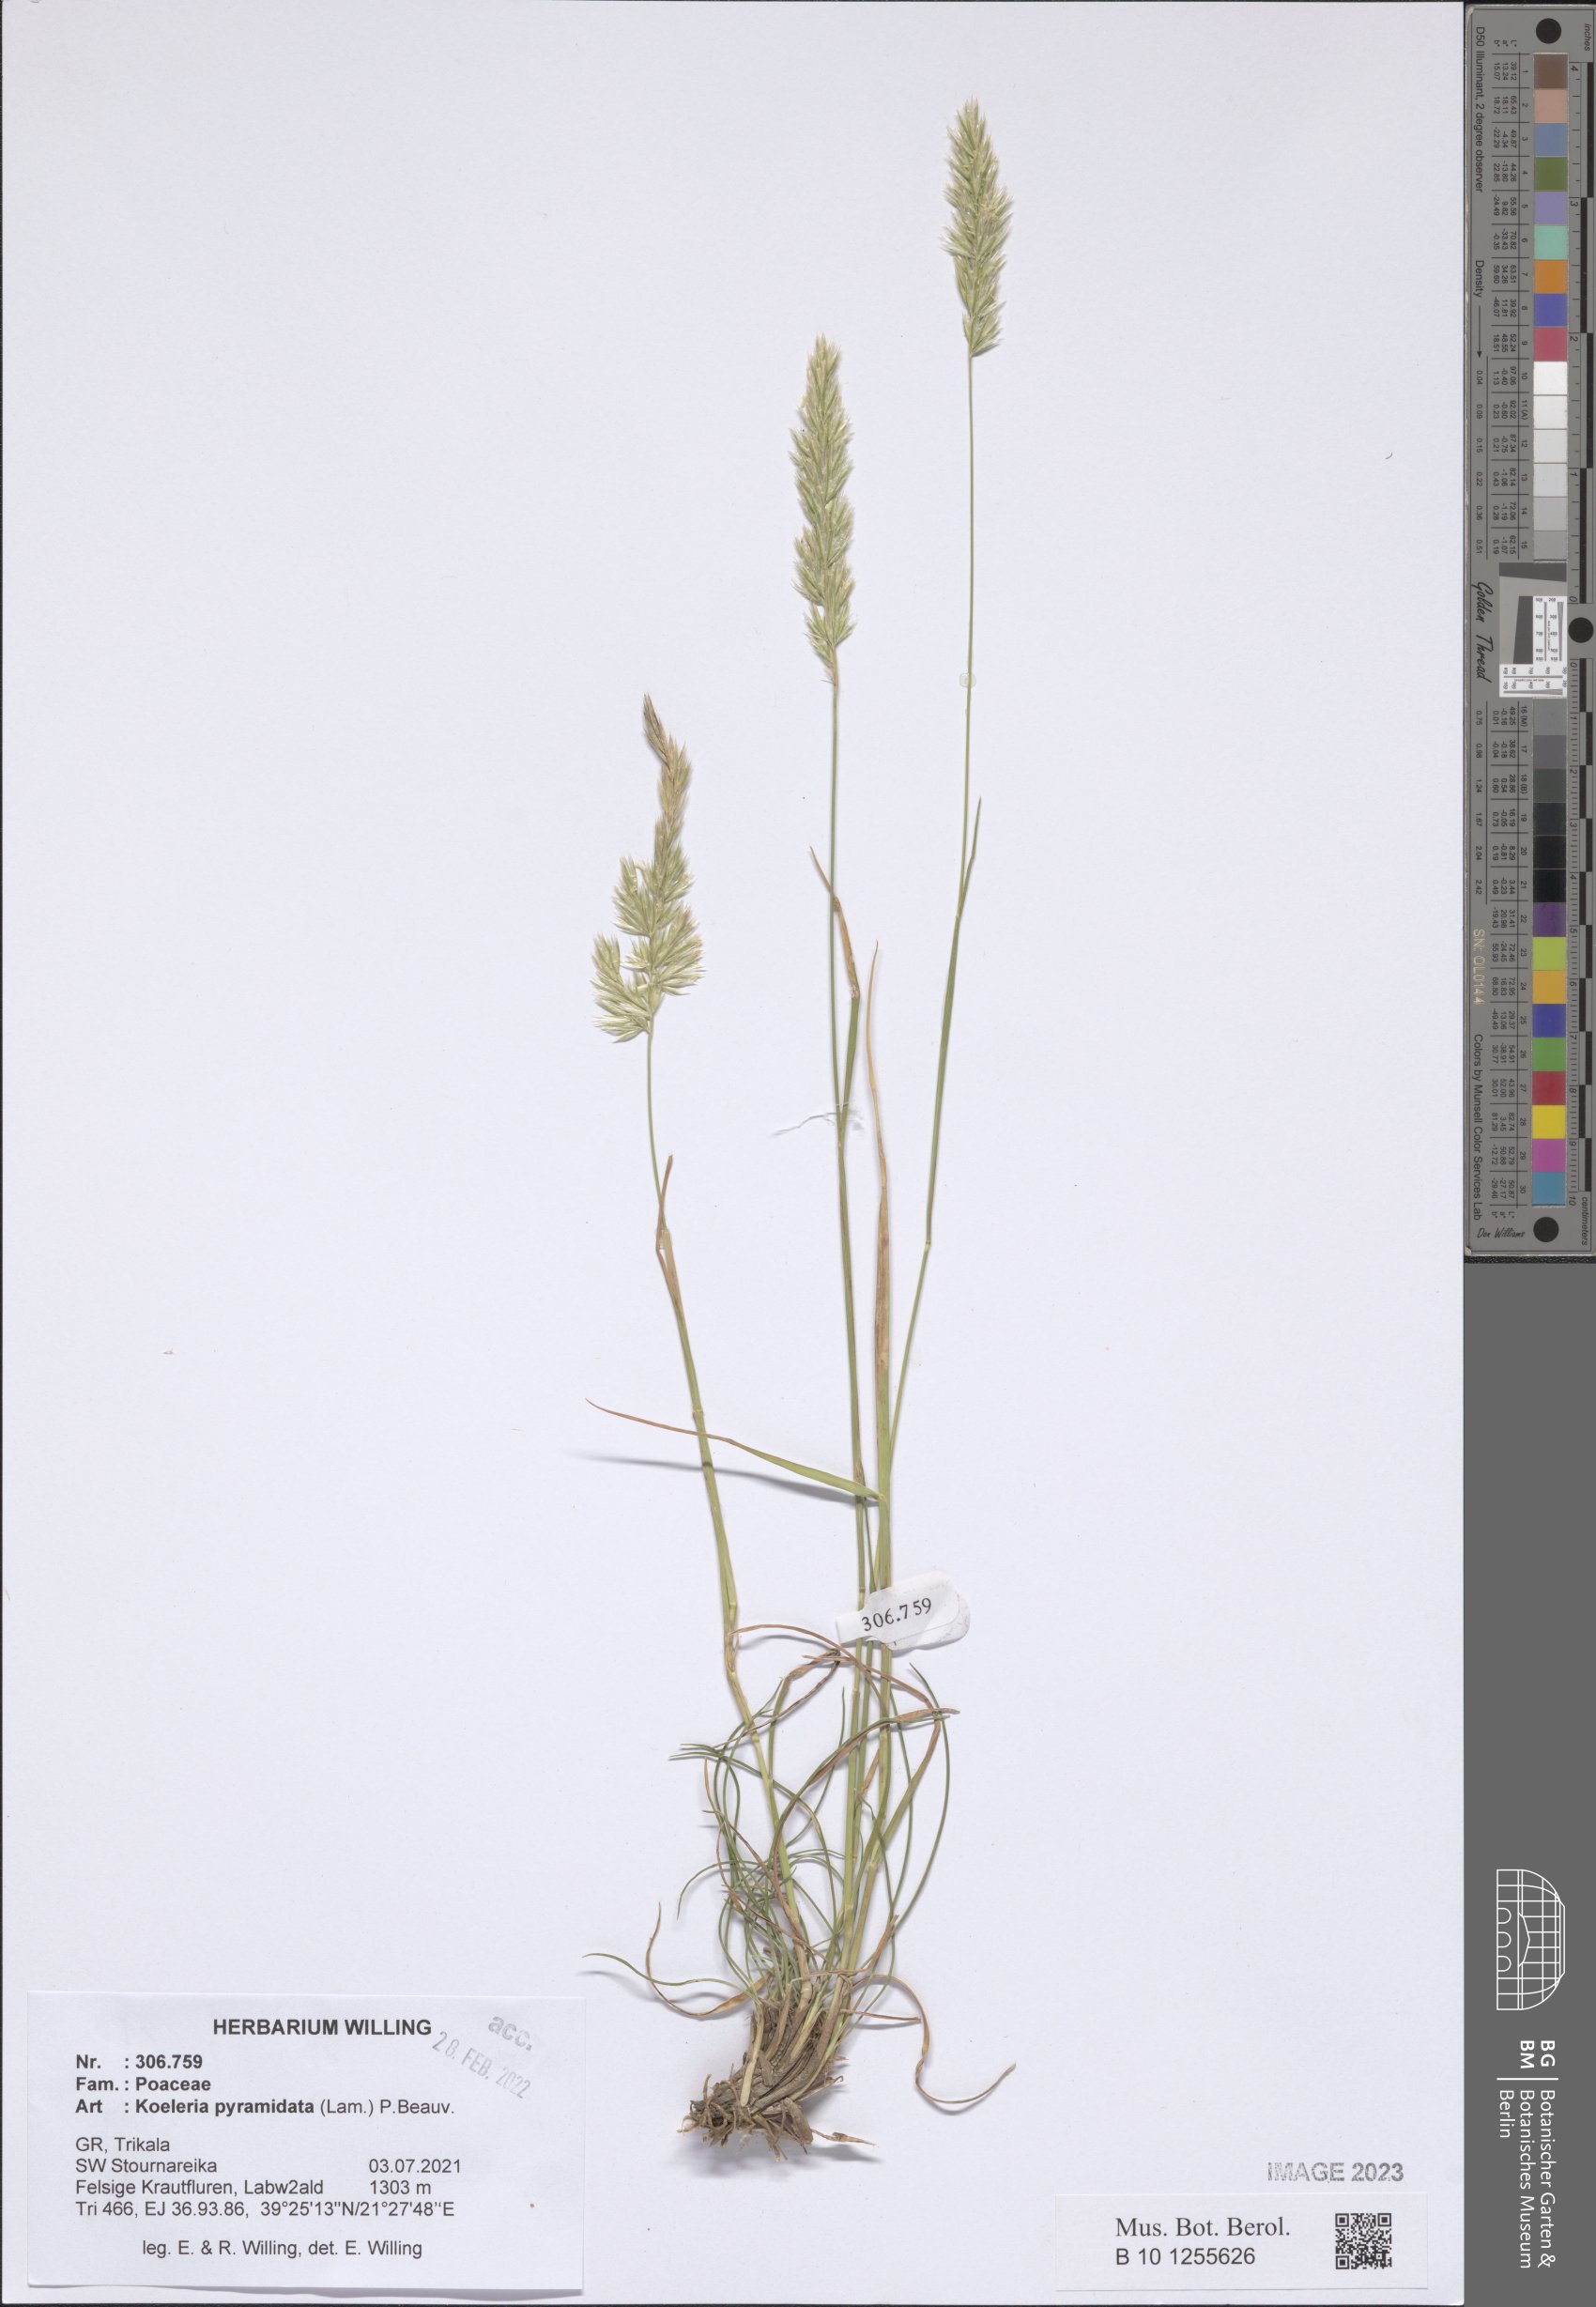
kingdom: Plantae
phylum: Tracheophyta
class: Liliopsida
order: Poales
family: Poaceae
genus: Koeleria
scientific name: Koeleria pyramidata
